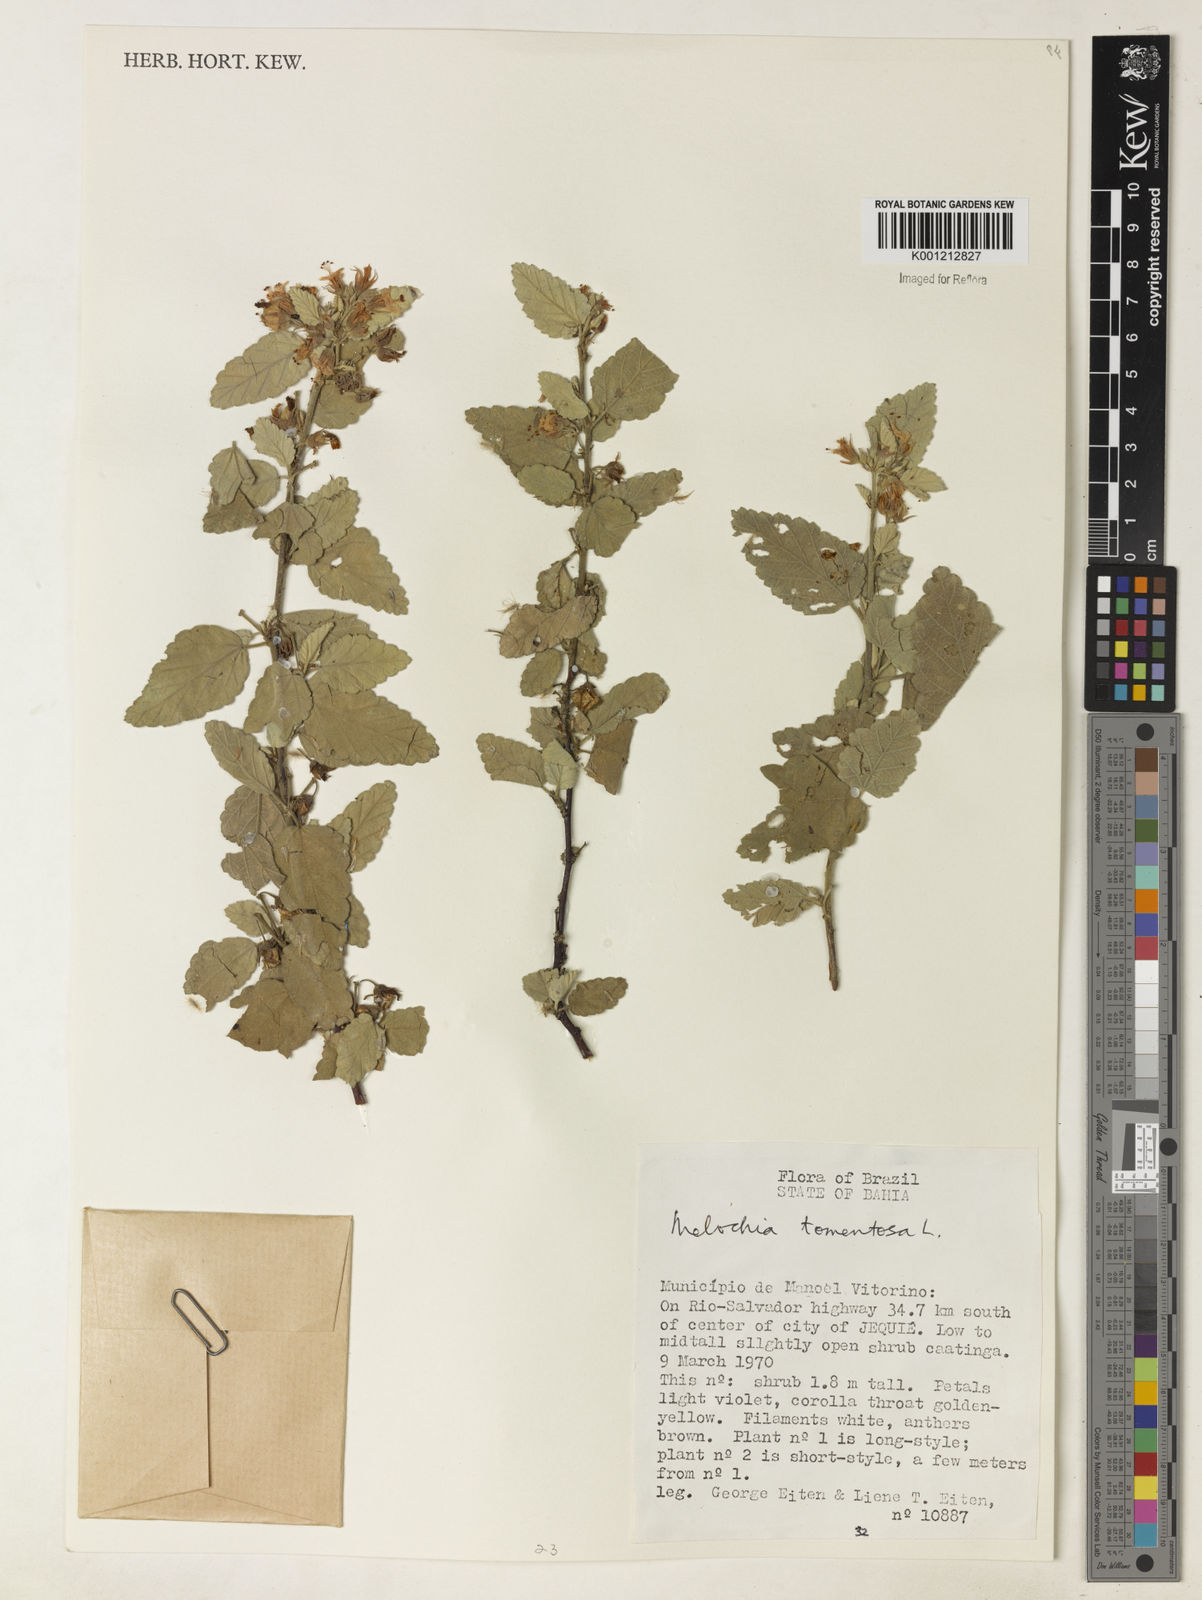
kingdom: Plantae
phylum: Tracheophyta
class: Magnoliopsida
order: Malvales
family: Malvaceae
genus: Melochia
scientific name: Melochia tomentosa
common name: Black torch
